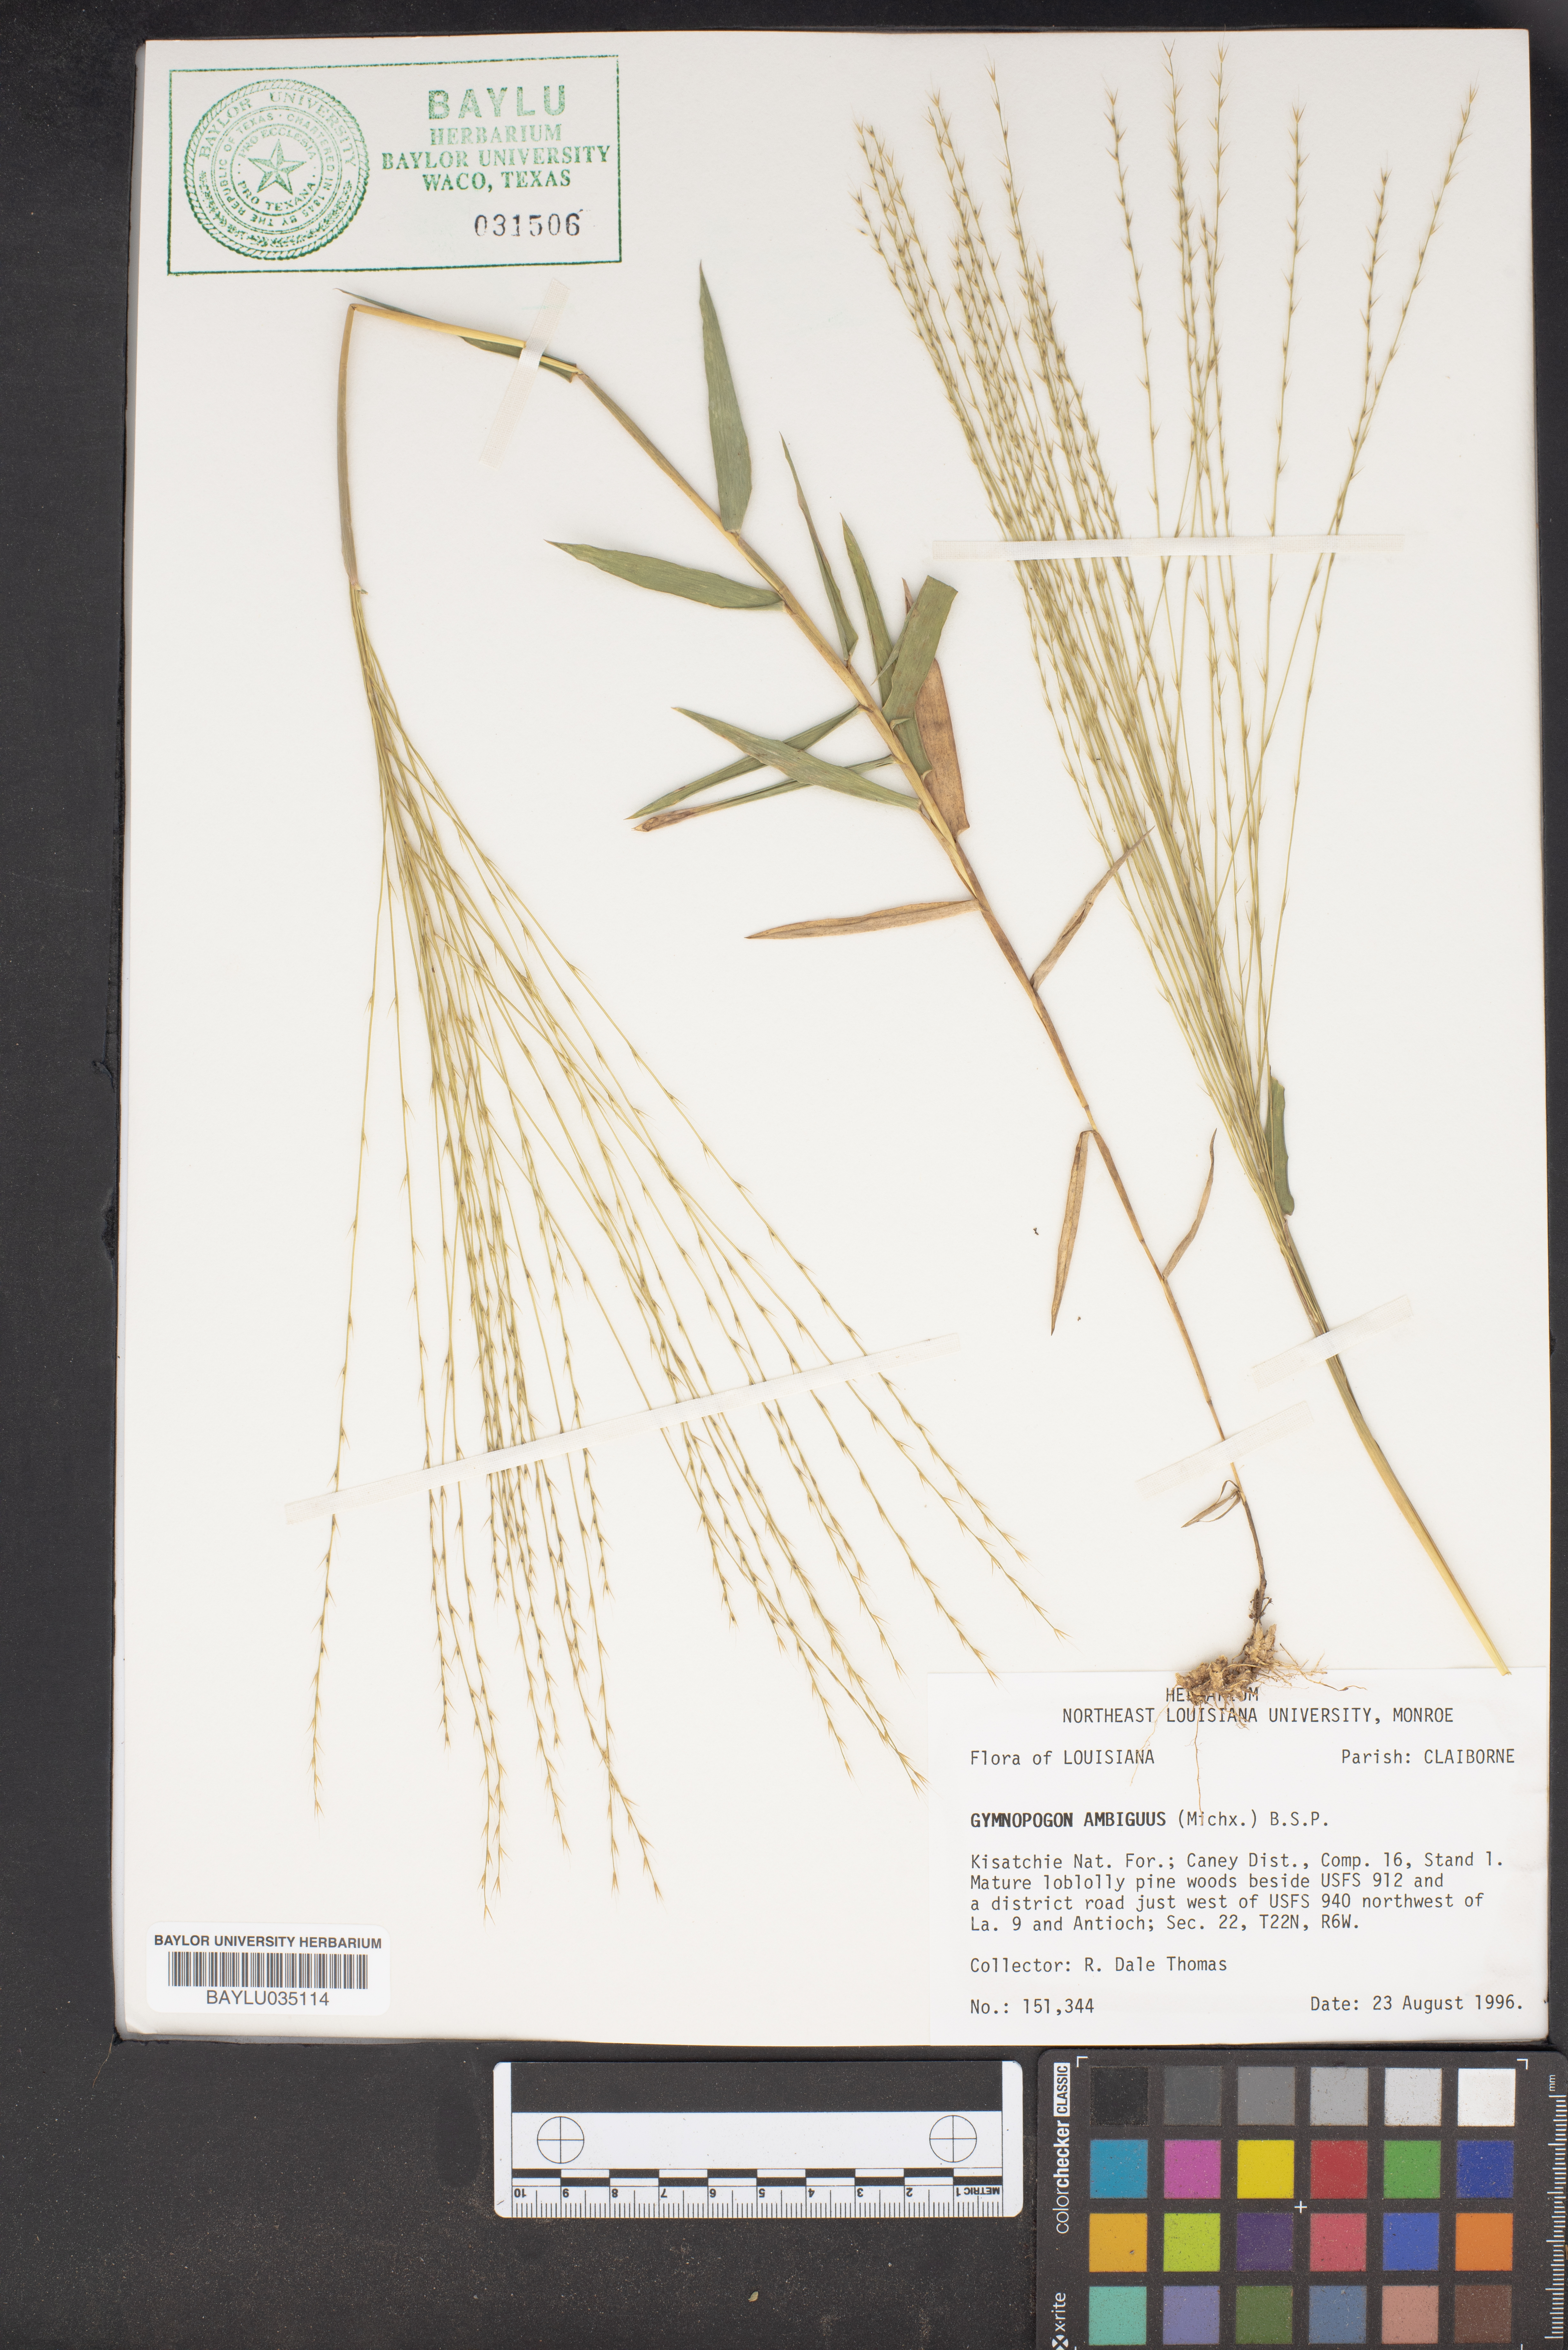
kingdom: Plantae
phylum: Tracheophyta
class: Liliopsida
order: Poales
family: Poaceae
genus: Gymnopogon
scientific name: Gymnopogon ambiguus
